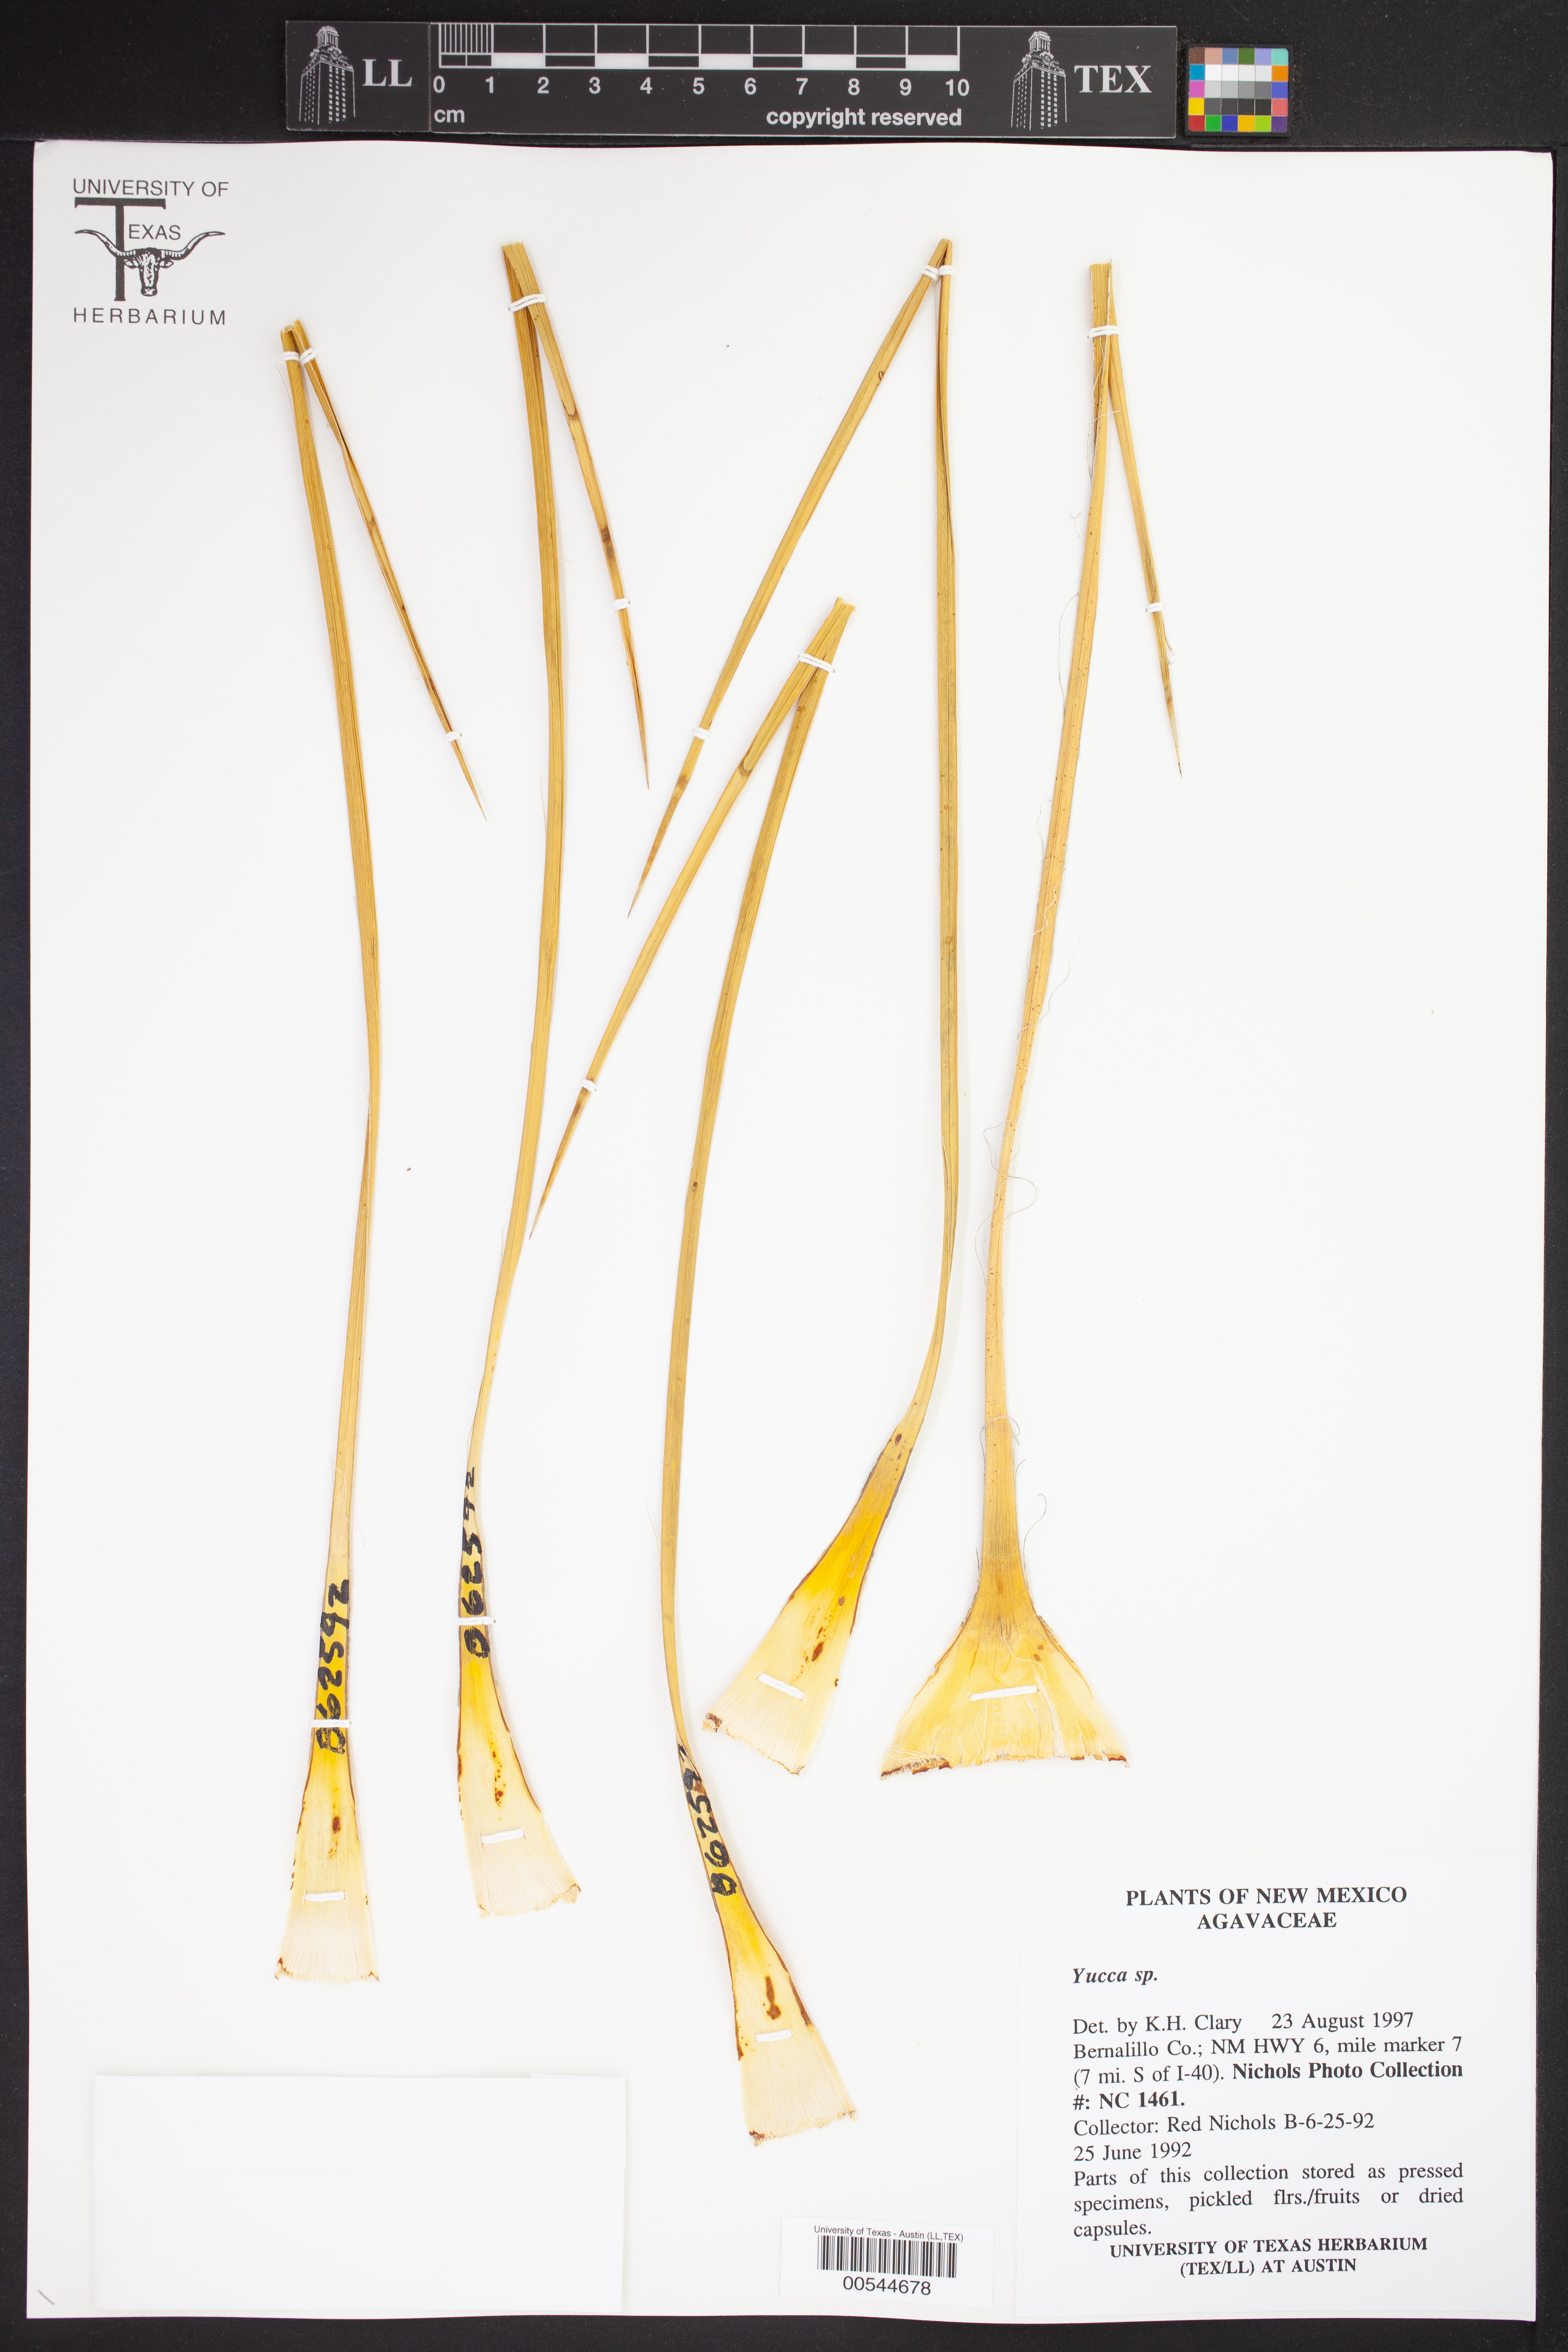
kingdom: Plantae
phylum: Tracheophyta
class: Liliopsida
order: Asparagales
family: Asparagaceae
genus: Yucca
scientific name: Yucca
